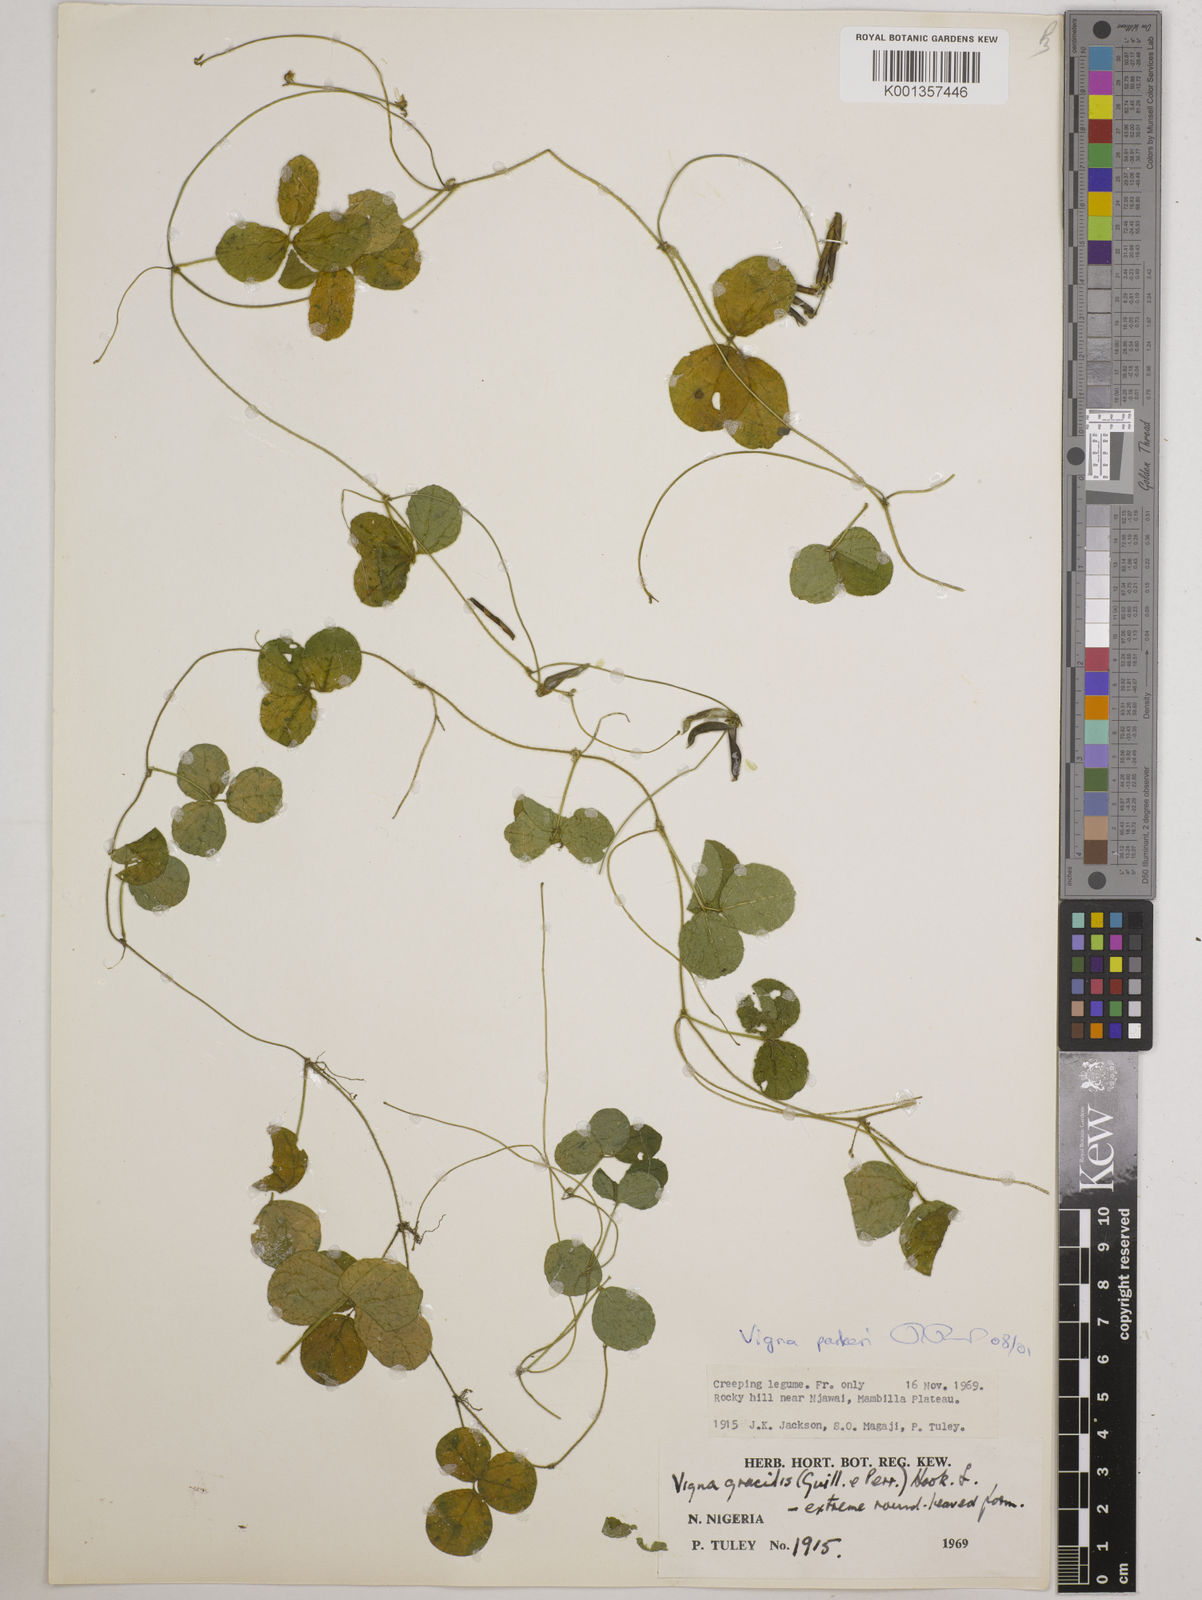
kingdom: Plantae
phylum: Tracheophyta
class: Magnoliopsida
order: Fabales
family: Fabaceae
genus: Vigna
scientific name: Vigna parkeri
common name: Creeping vigna
